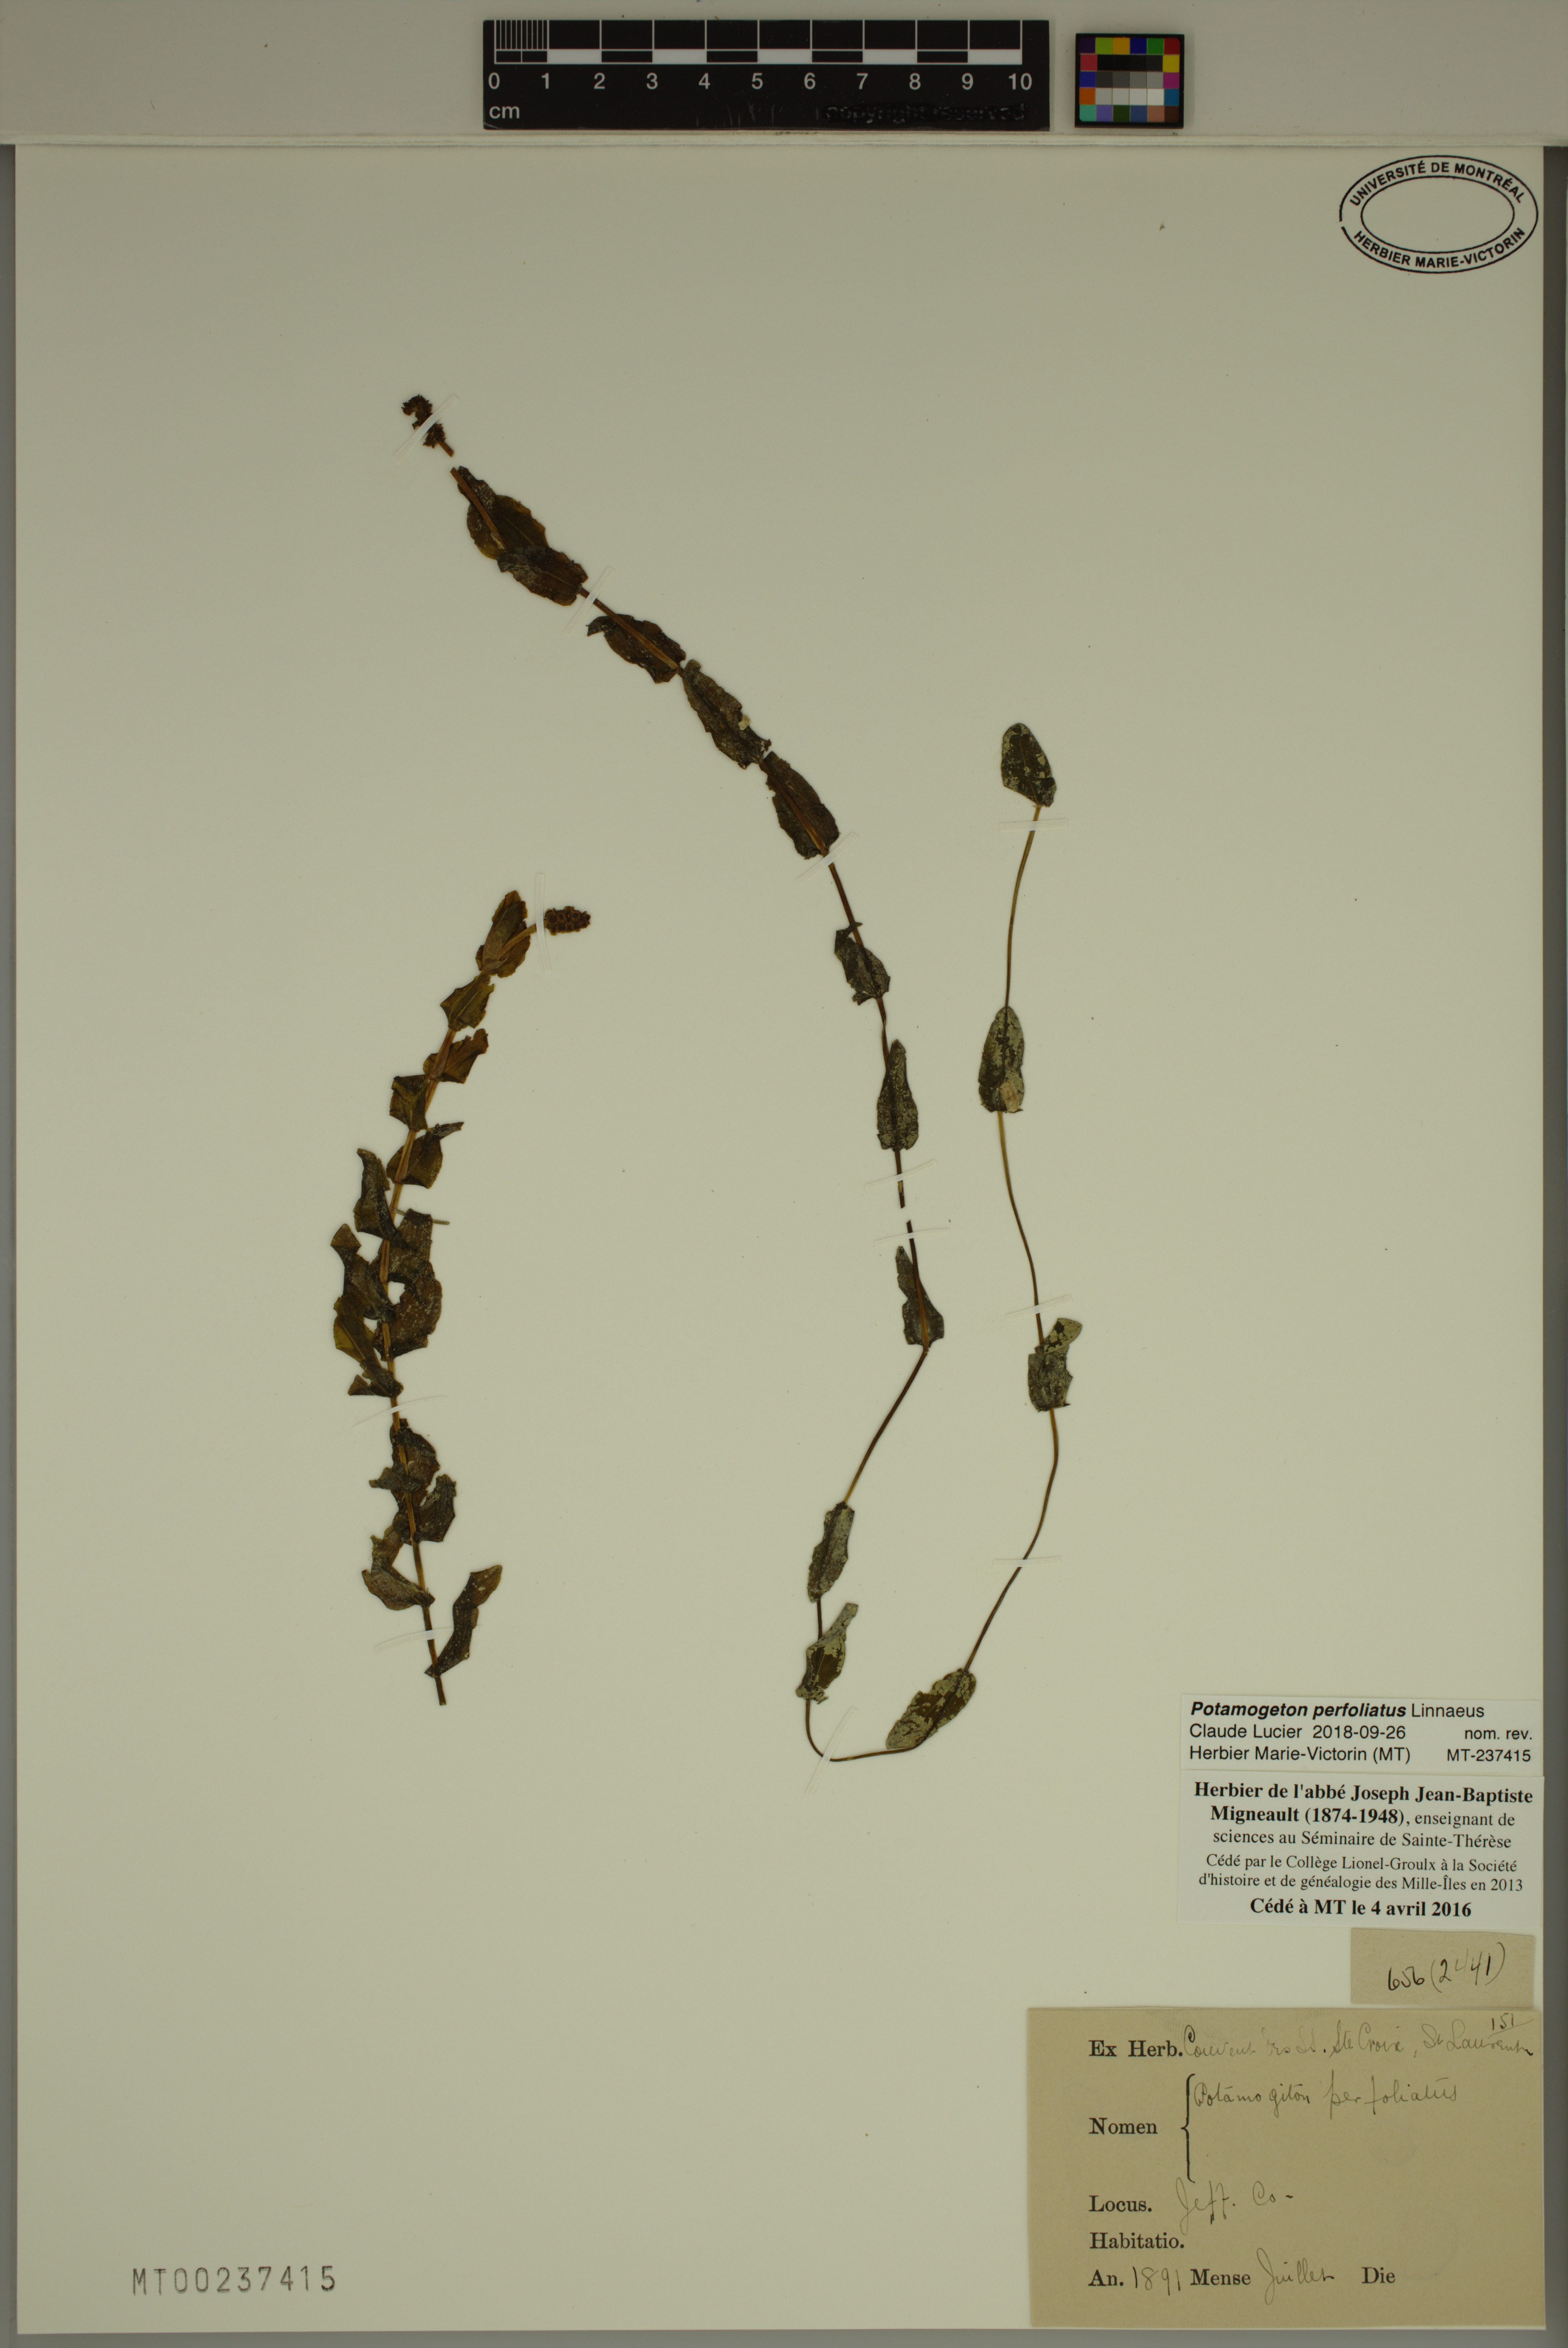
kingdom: Plantae
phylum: Tracheophyta
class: Liliopsida
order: Alismatales
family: Potamogetonaceae
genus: Potamogeton
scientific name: Potamogeton perfoliatus
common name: Perfoliate pondweed
